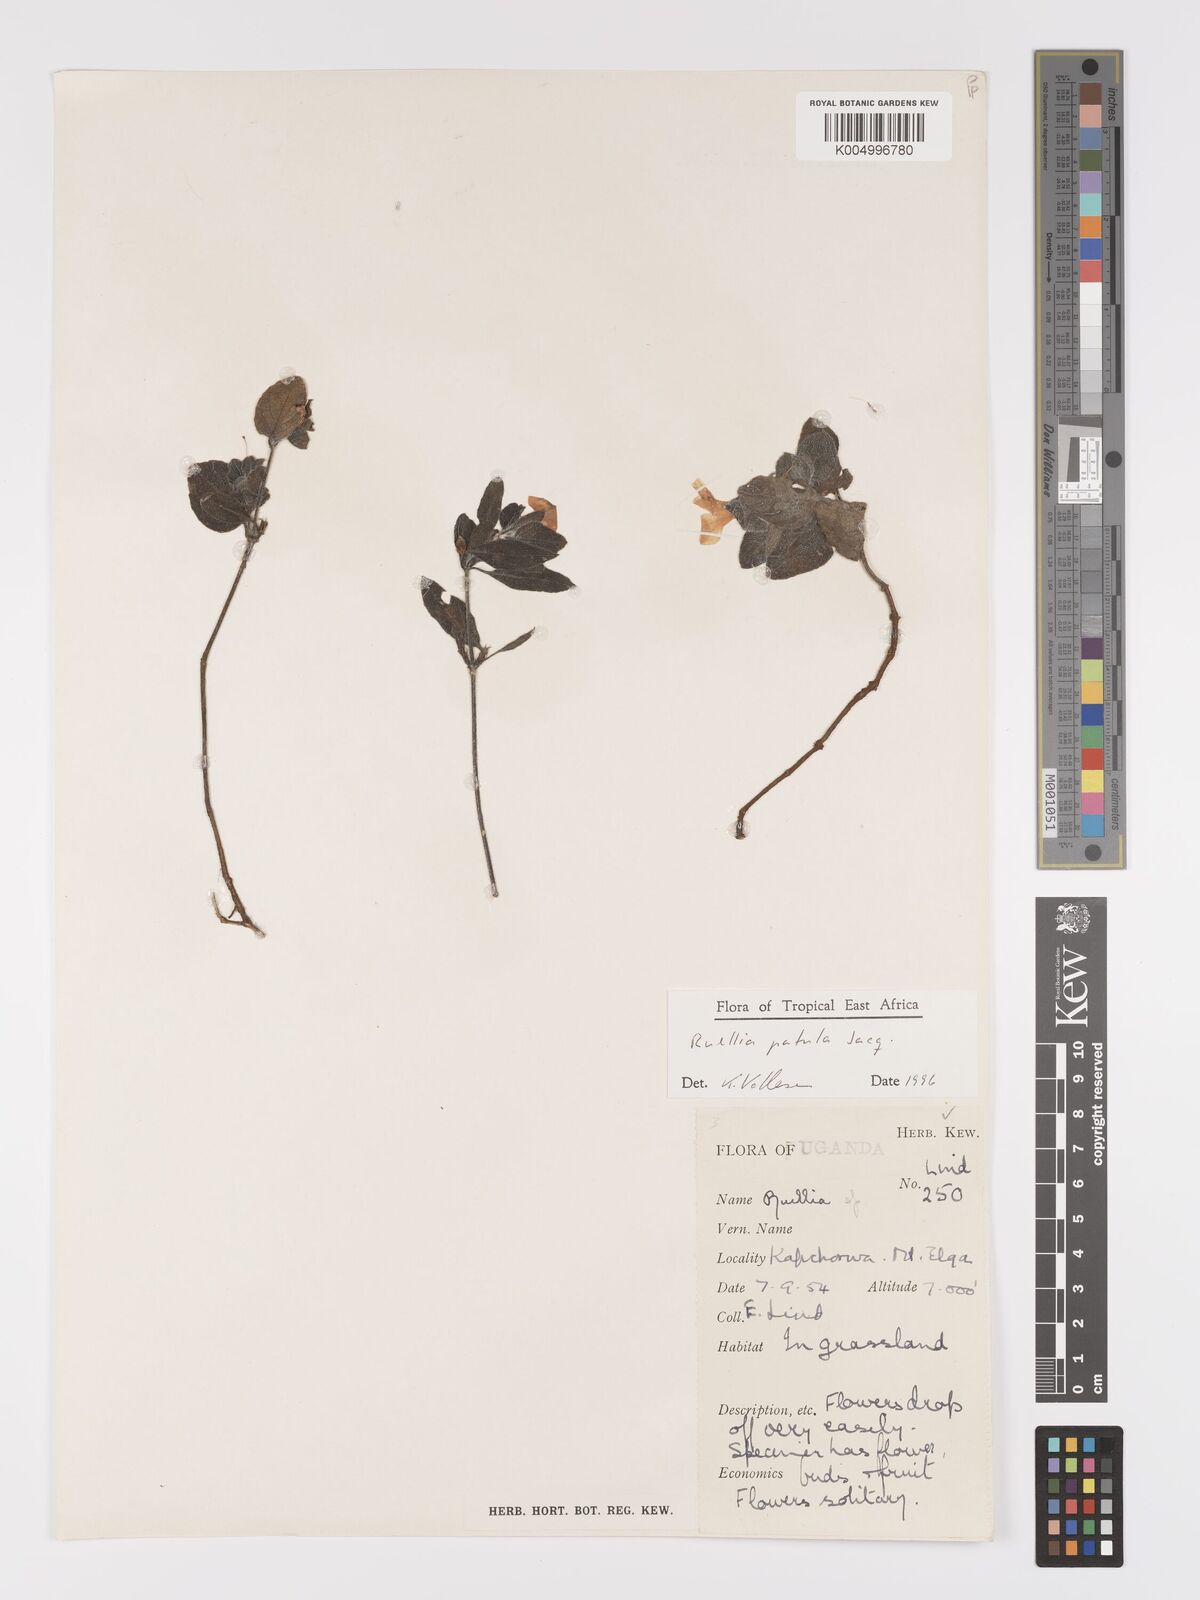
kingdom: Plantae
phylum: Tracheophyta
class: Magnoliopsida
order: Lamiales
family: Acanthaceae
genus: Ruellia
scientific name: Ruellia patula
